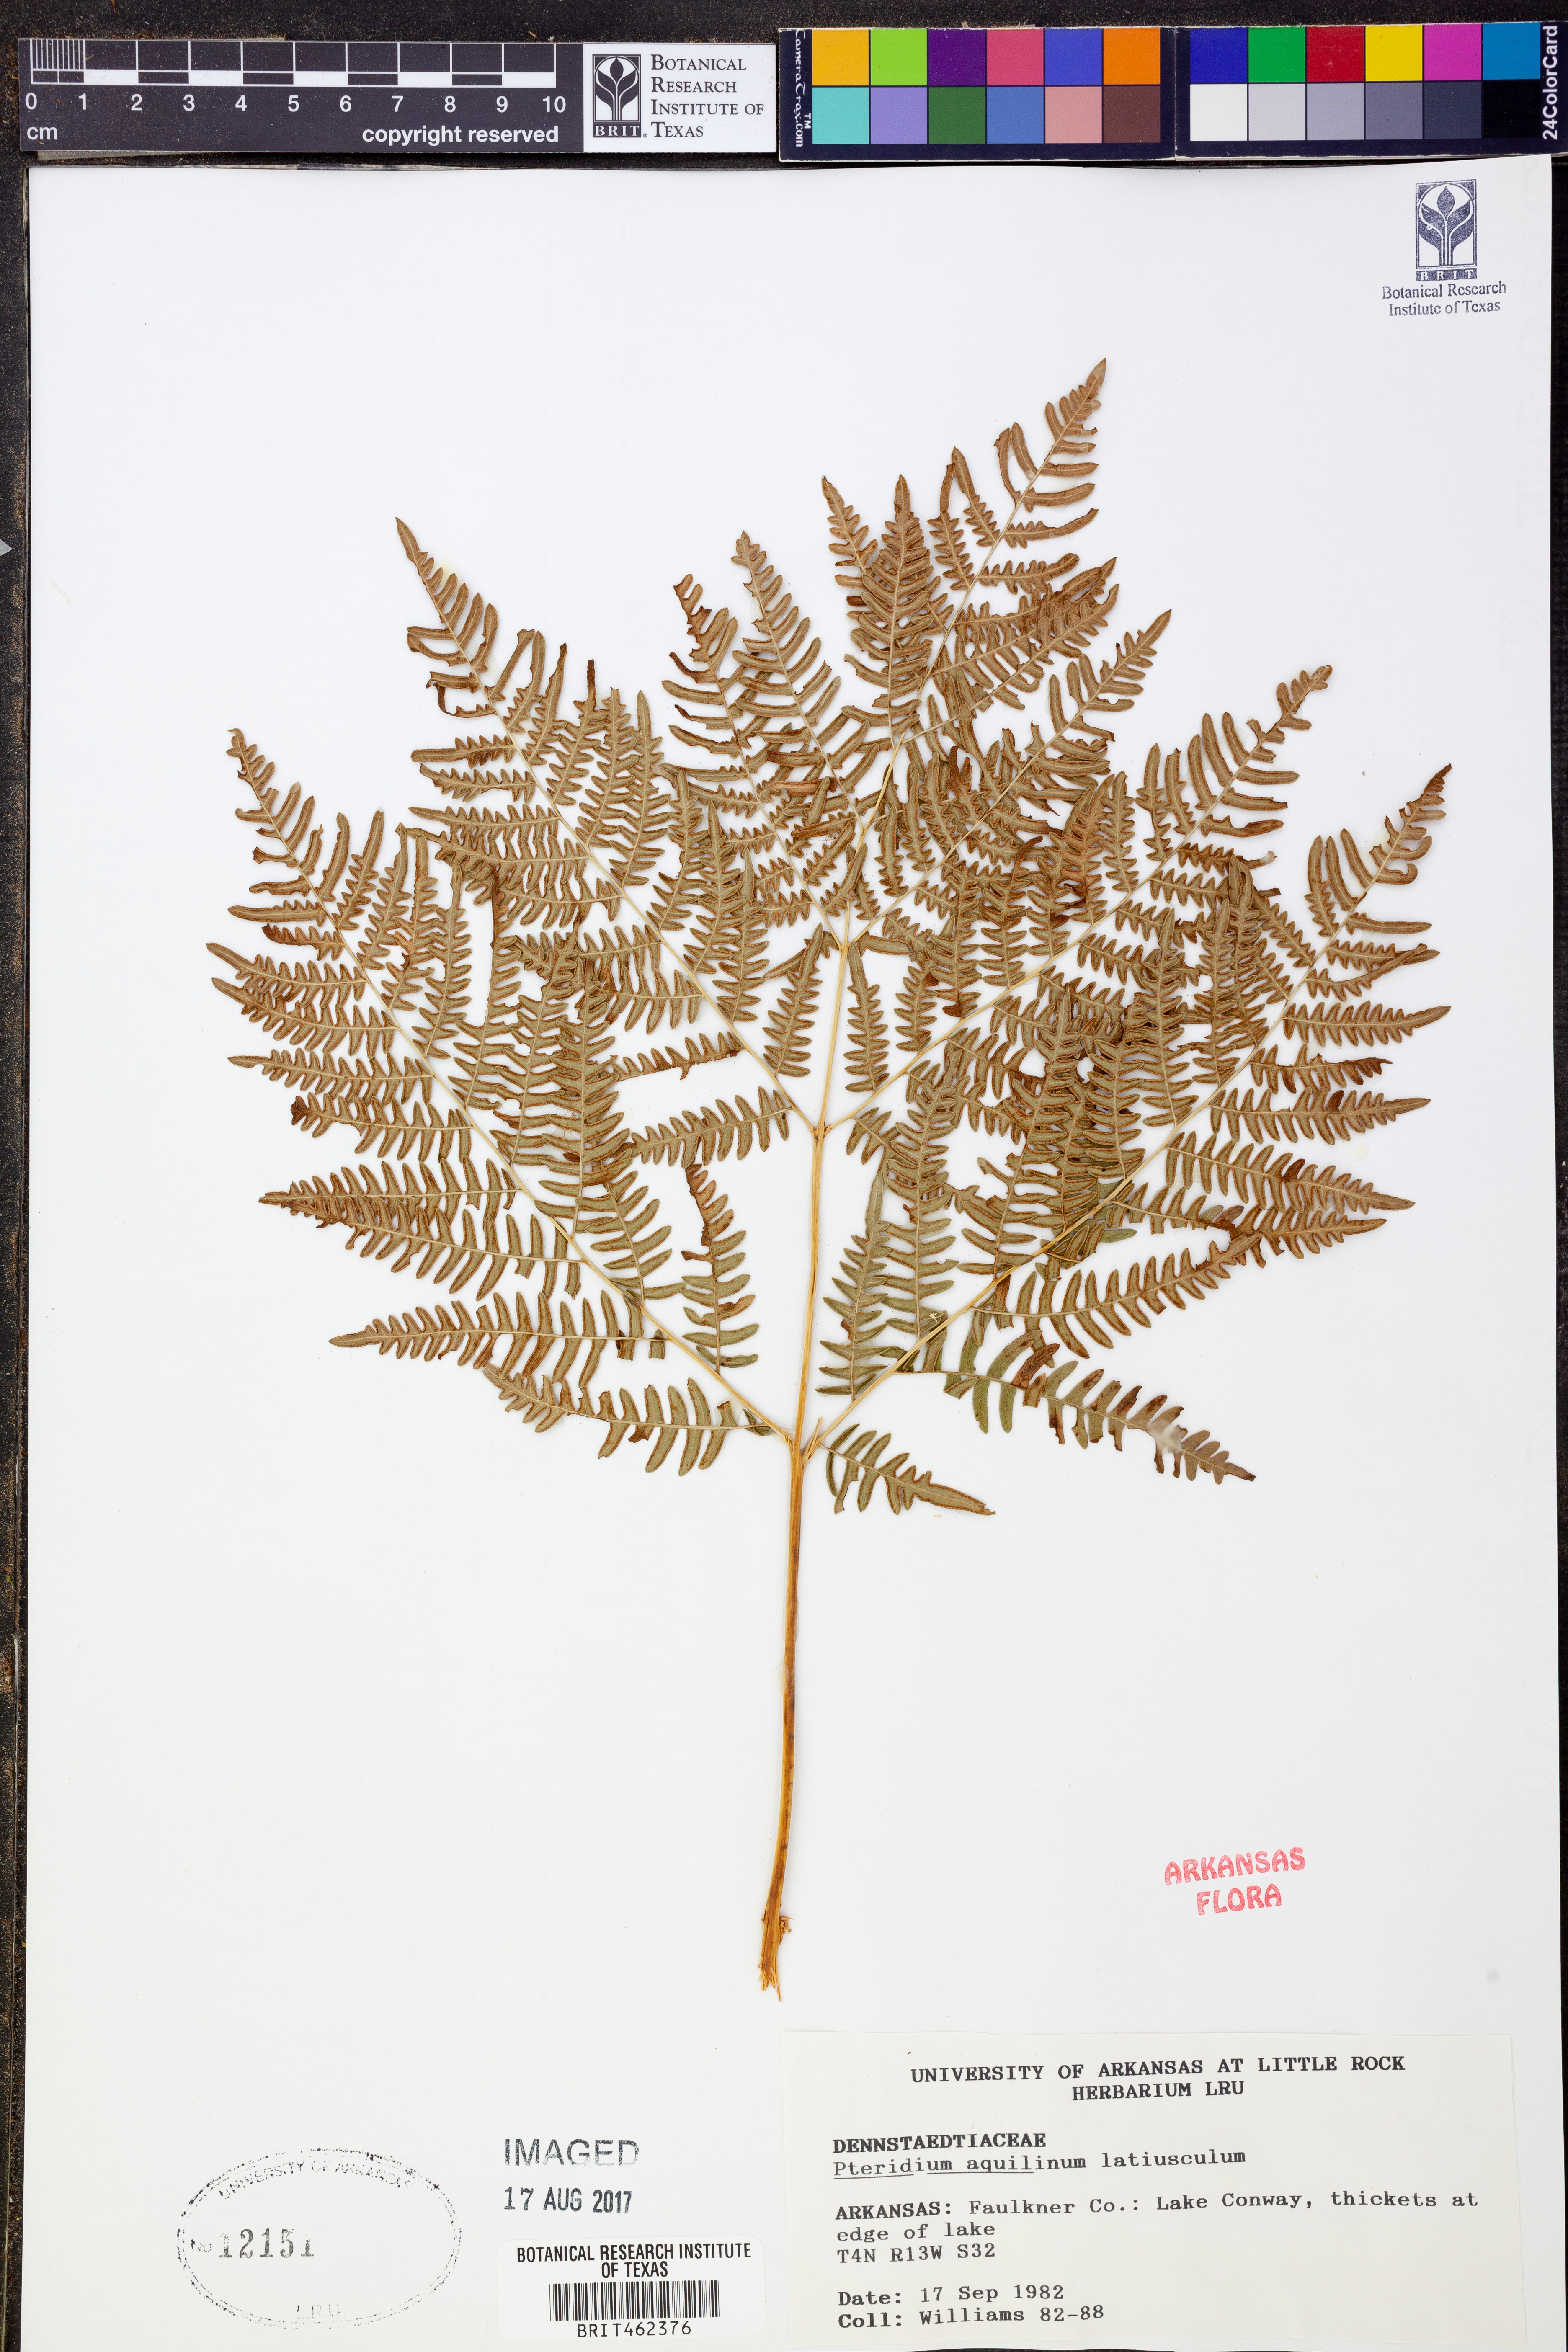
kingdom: Plantae
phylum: Tracheophyta
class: Polypodiopsida
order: Polypodiales
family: Dennstaedtiaceae
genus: Pteridium
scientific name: Pteridium aquilinum
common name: Bracken
